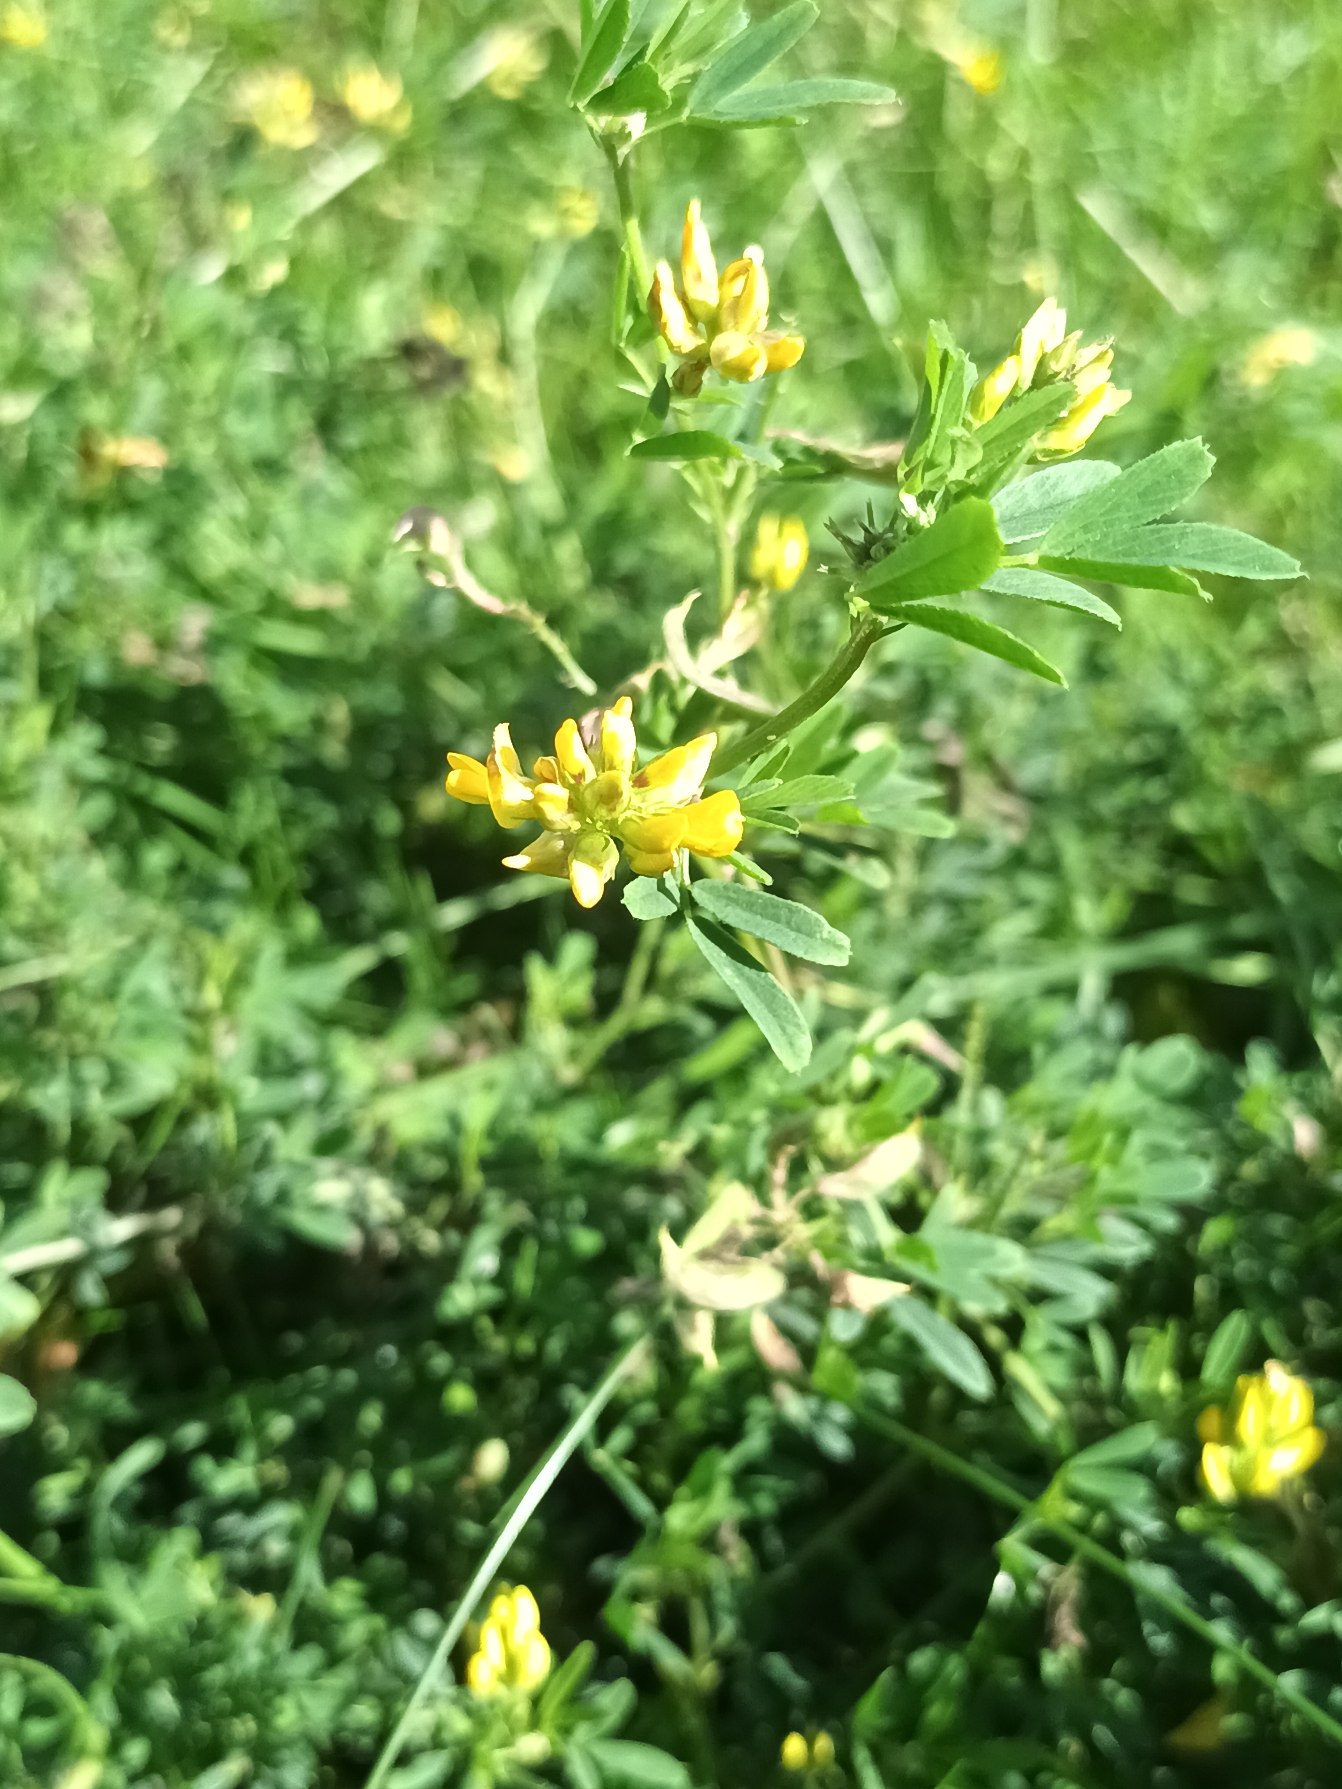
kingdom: Plantae
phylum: Tracheophyta
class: Magnoliopsida
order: Fabales
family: Fabaceae
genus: Medicago
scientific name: Medicago falcata
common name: Segl-sneglebælg
